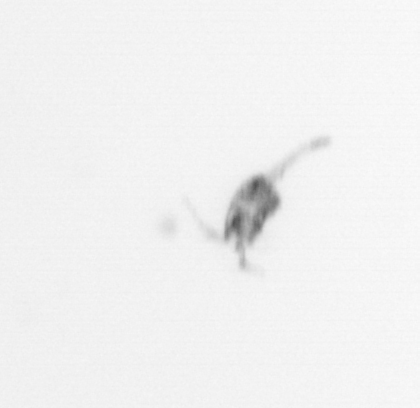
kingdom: Animalia
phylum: Arthropoda
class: Copepoda
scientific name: Copepoda
